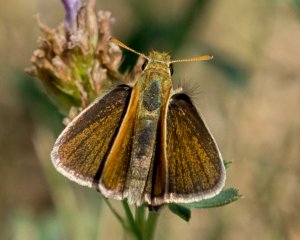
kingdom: Animalia
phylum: Arthropoda
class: Insecta
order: Lepidoptera
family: Hesperiidae
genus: Oarisma
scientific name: Oarisma garita
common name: Garita Skipperling
